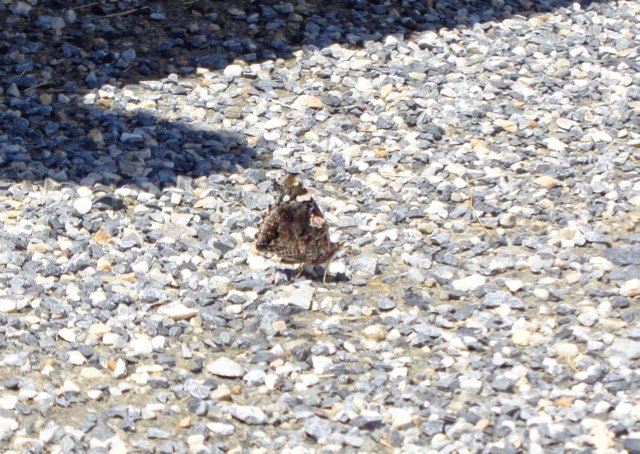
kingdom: Animalia
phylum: Arthropoda
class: Insecta
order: Lepidoptera
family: Nymphalidae
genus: Vanessa
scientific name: Vanessa atalanta
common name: Red Admiral
